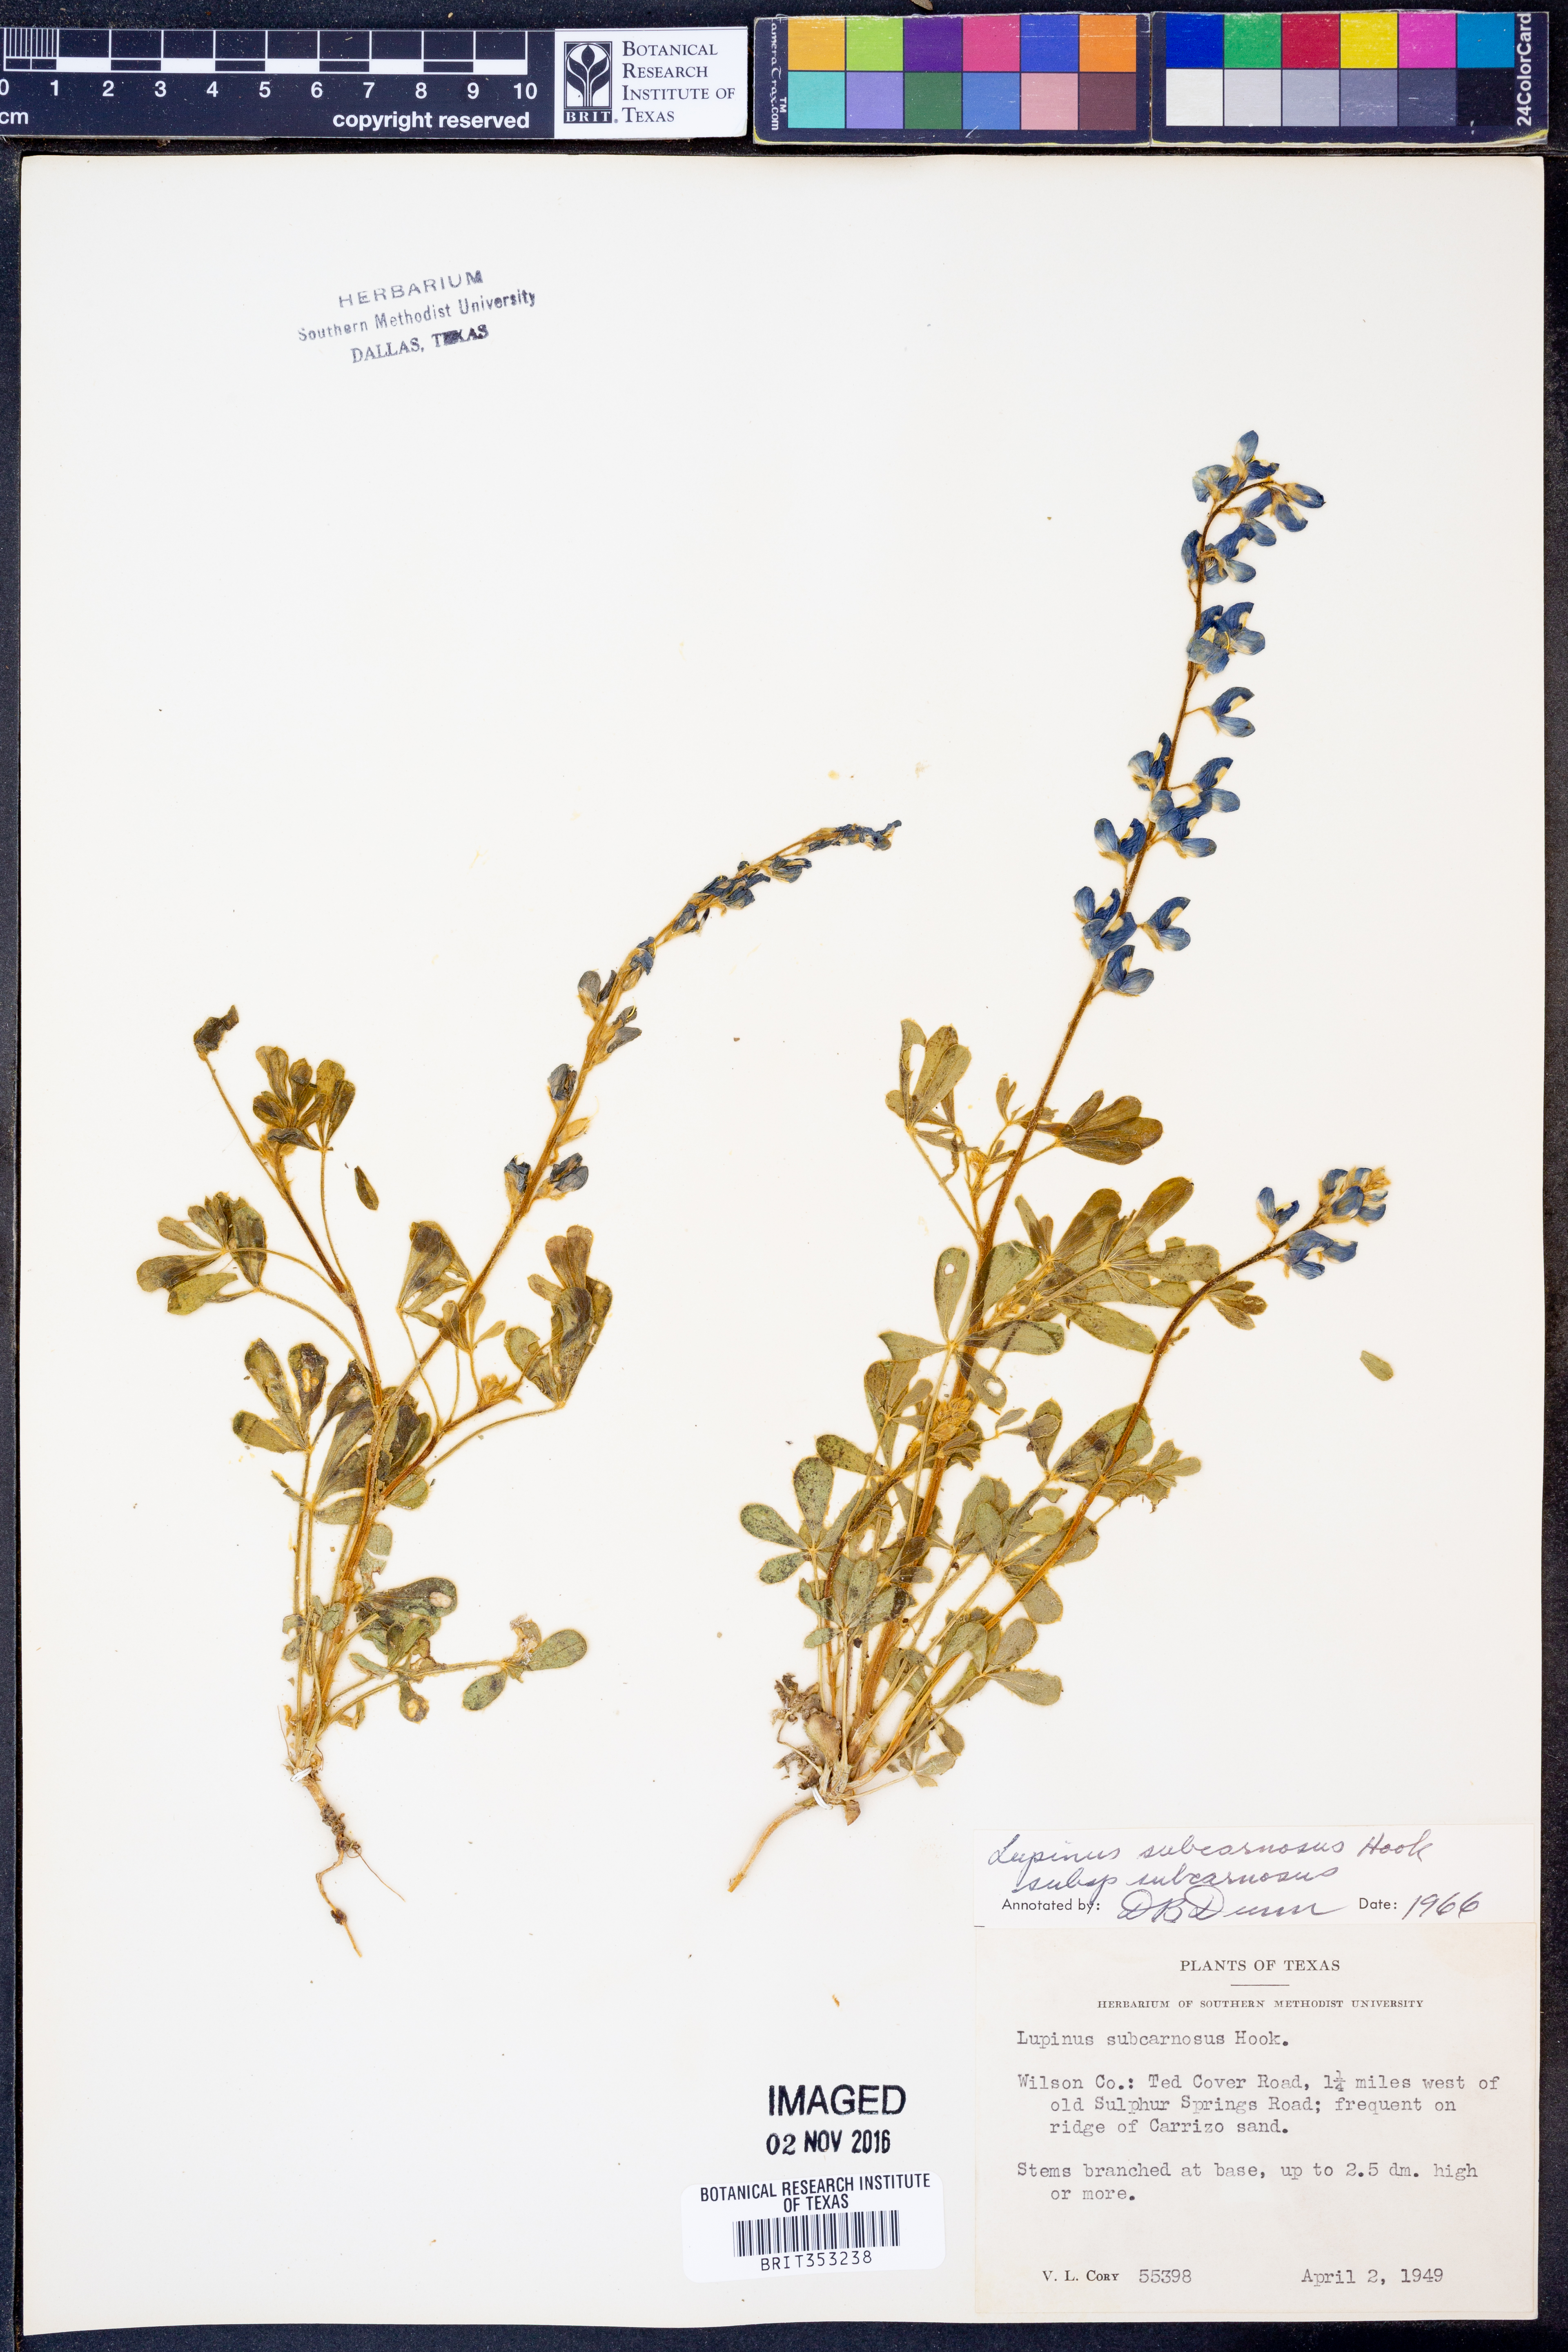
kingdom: Plantae
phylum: Tracheophyta
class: Magnoliopsida
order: Fabales
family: Fabaceae
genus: Lupinus
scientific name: Lupinus subcarnosus
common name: Texas bluebonnet
